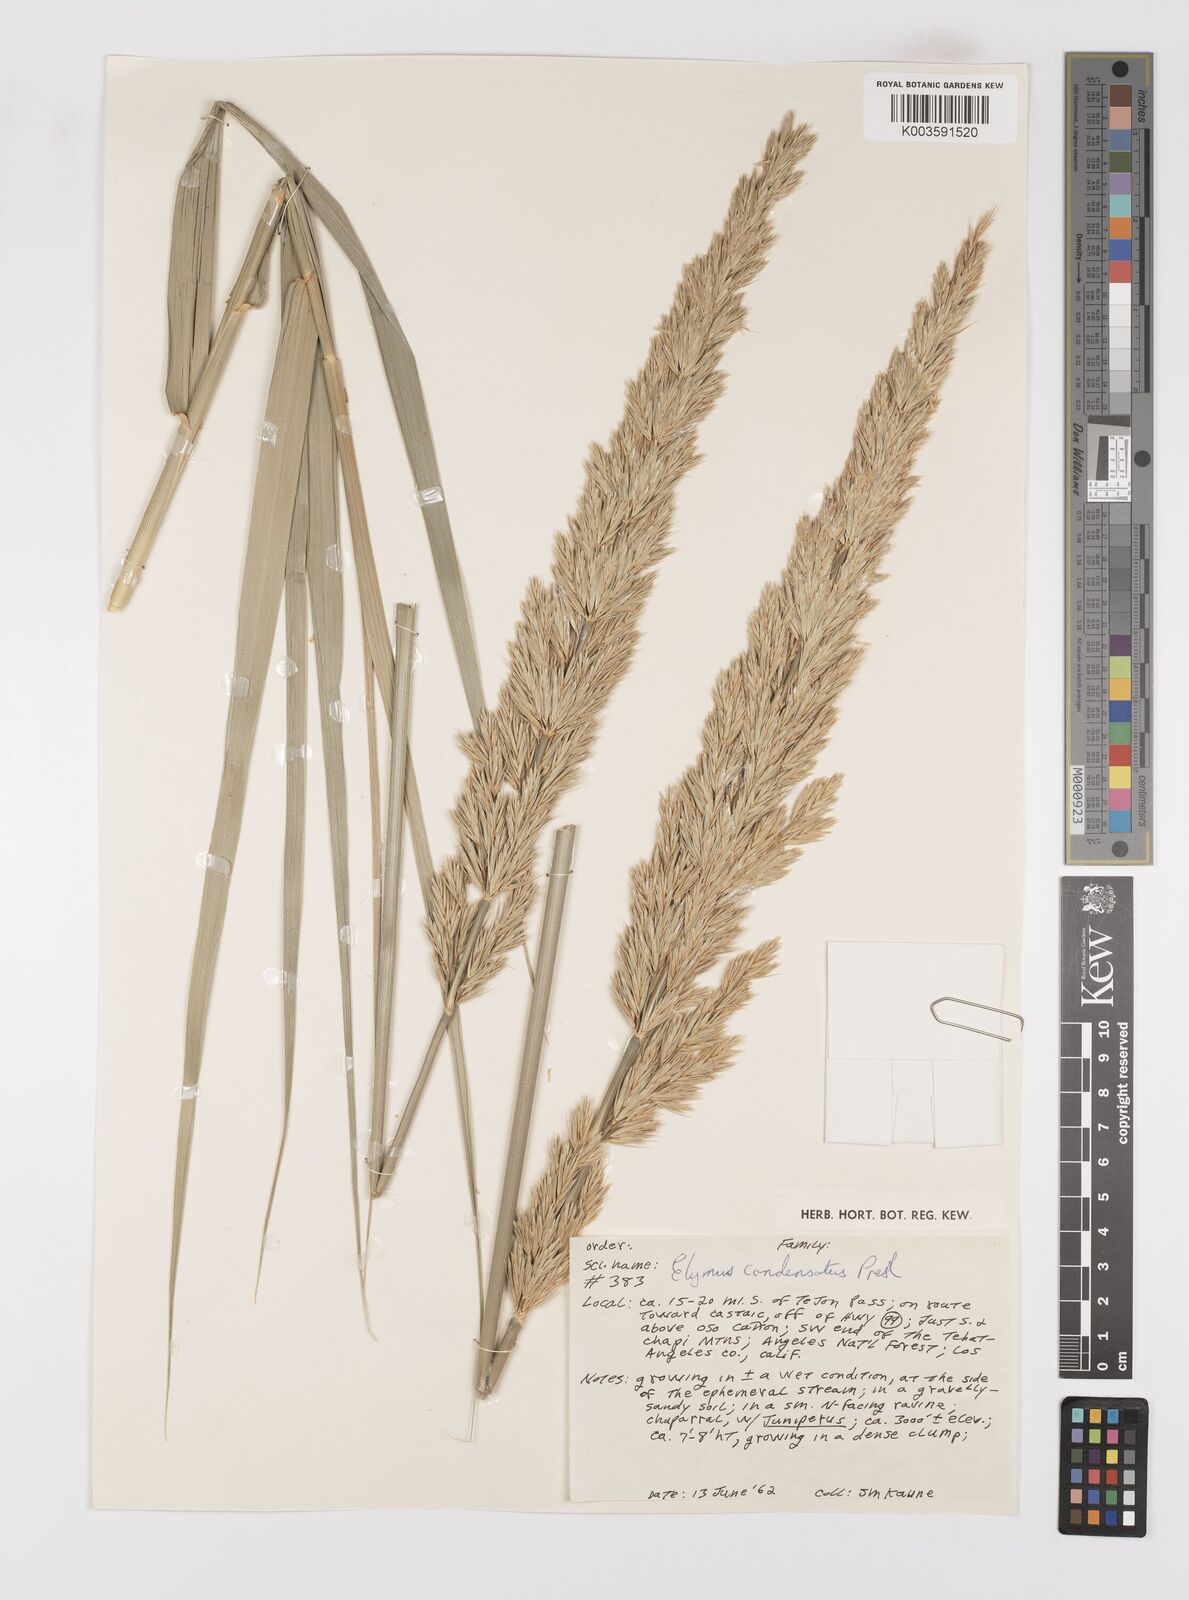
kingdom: Plantae
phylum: Tracheophyta
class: Liliopsida
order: Poales
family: Poaceae
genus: Leymus
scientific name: Leymus condensatus
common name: Giant wild rye
